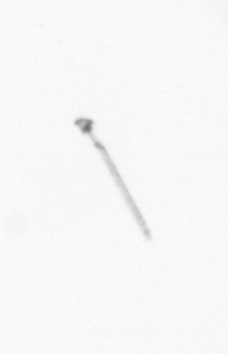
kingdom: Chromista
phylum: Ochrophyta
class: Bacillariophyceae
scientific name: Bacillariophyceae
